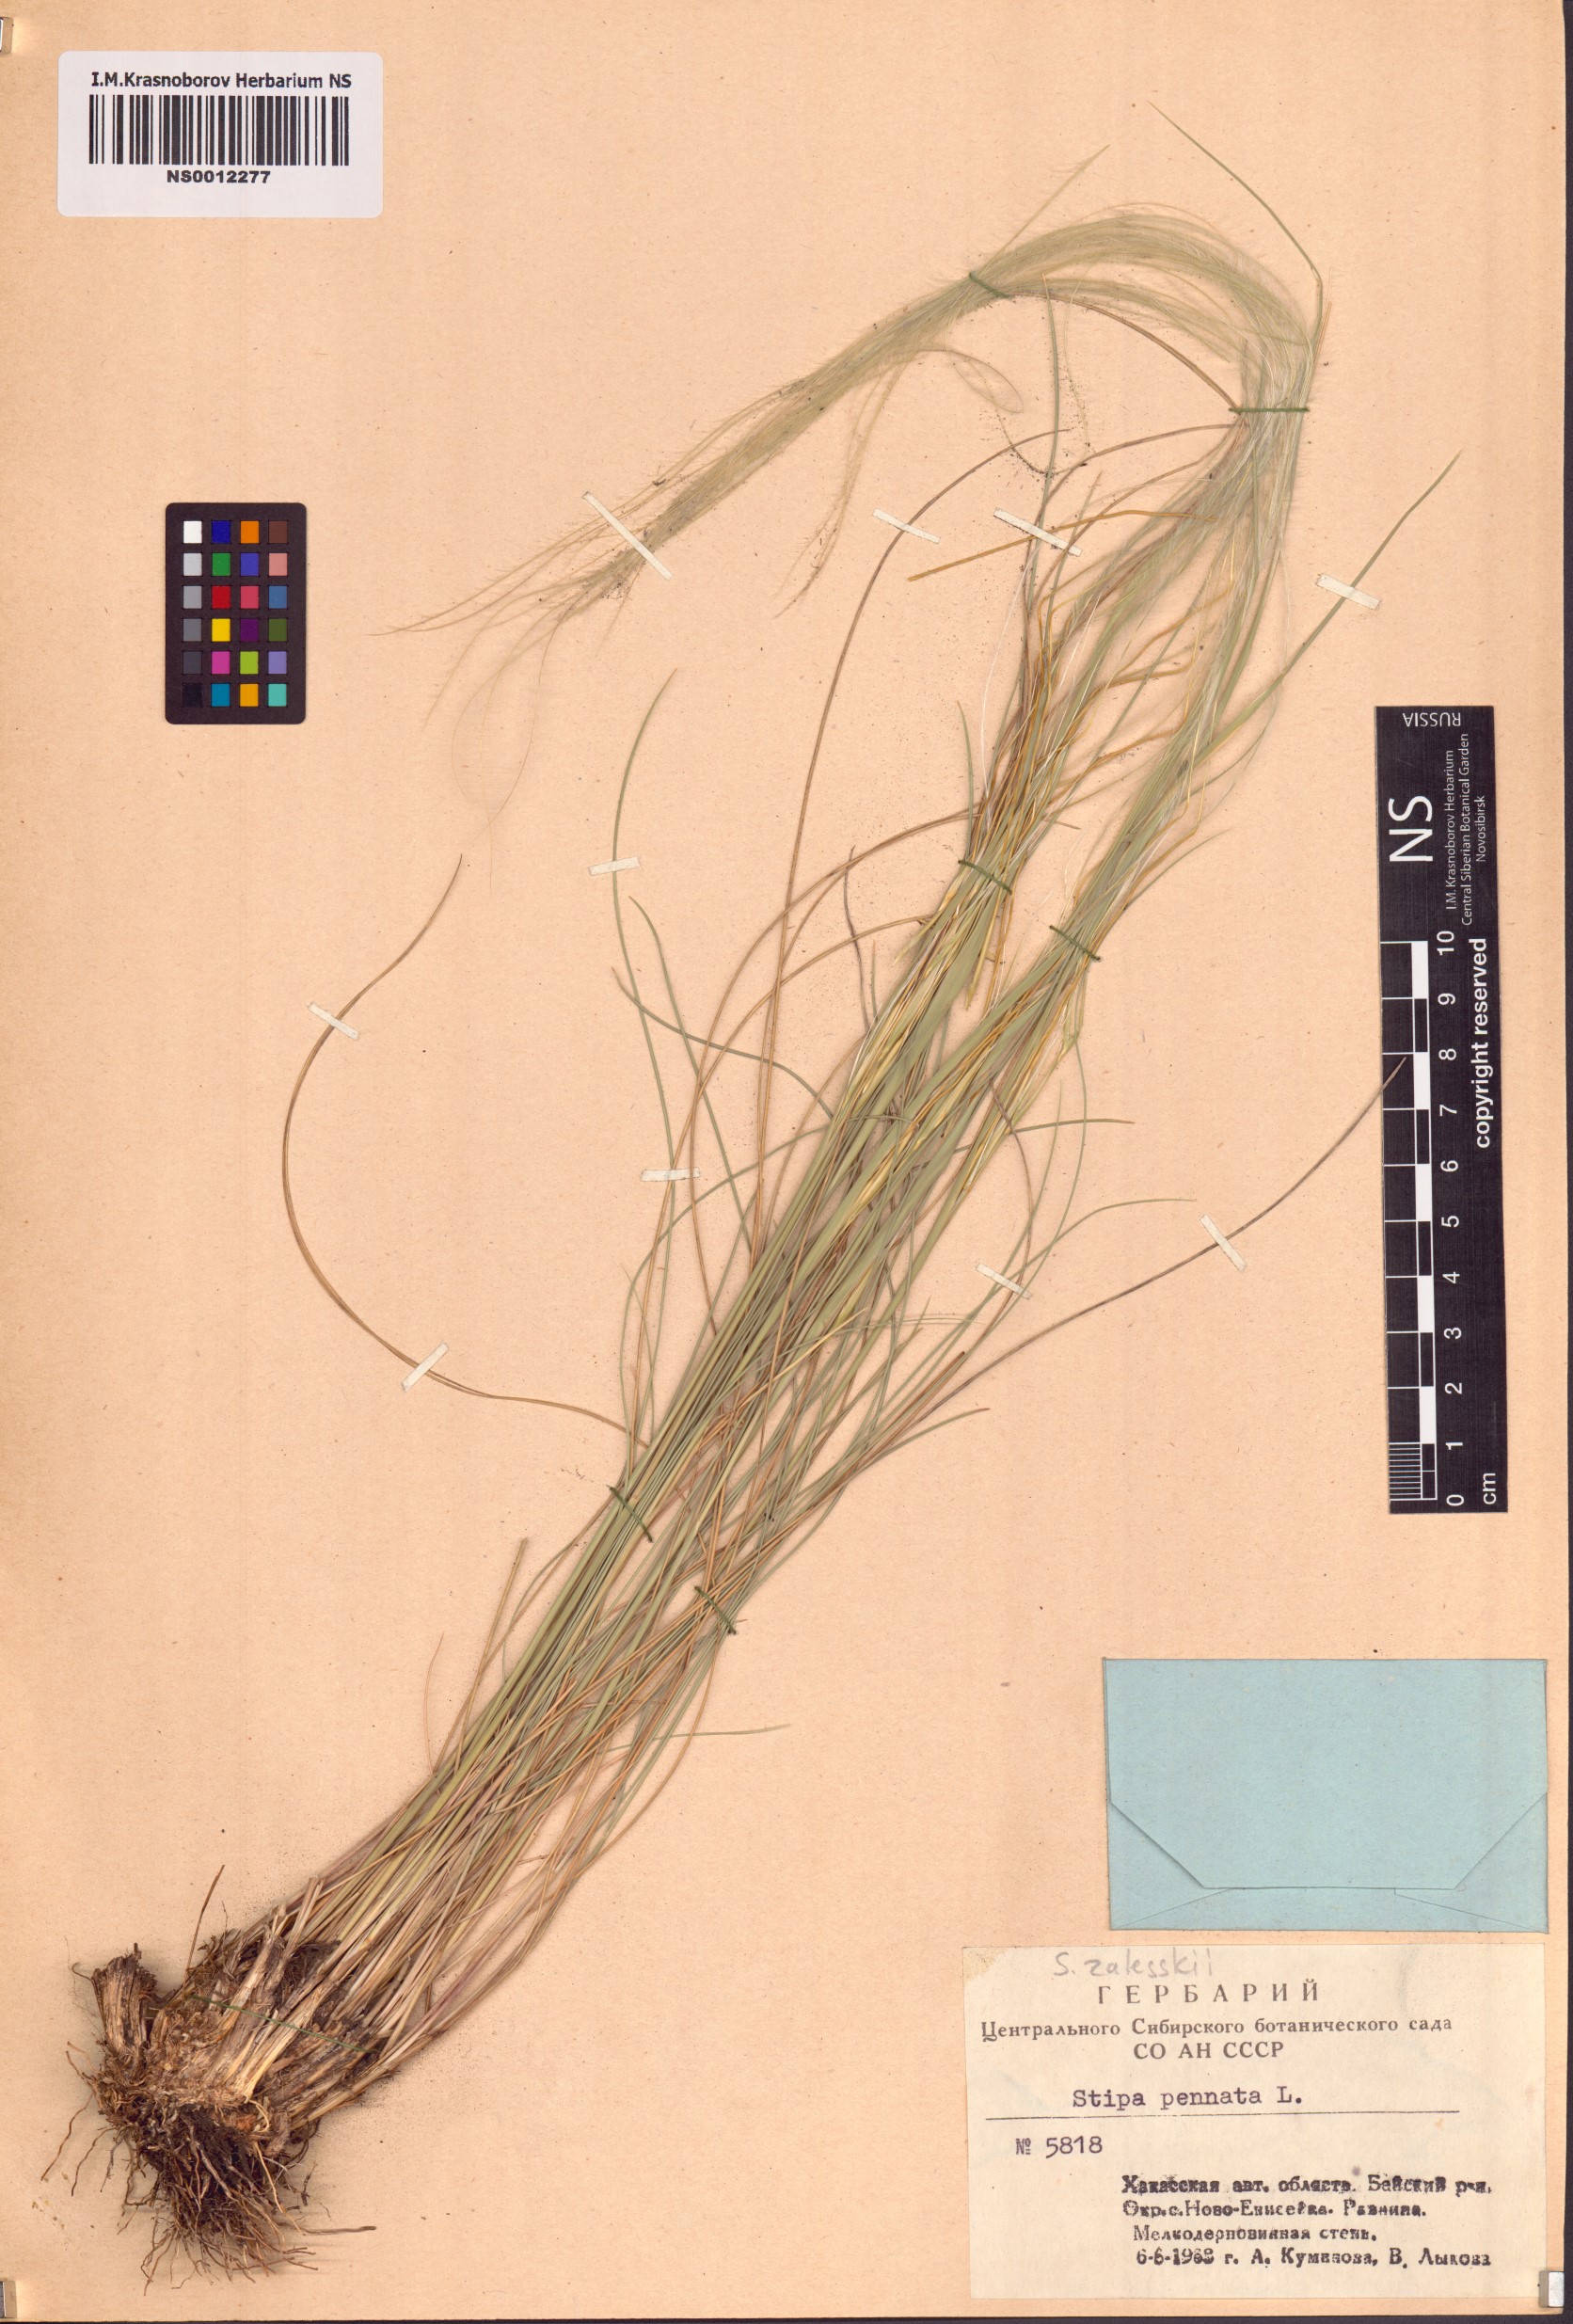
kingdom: Plantae
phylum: Tracheophyta
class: Liliopsida
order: Poales
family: Poaceae
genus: Stipa
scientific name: Stipa zalesskii
